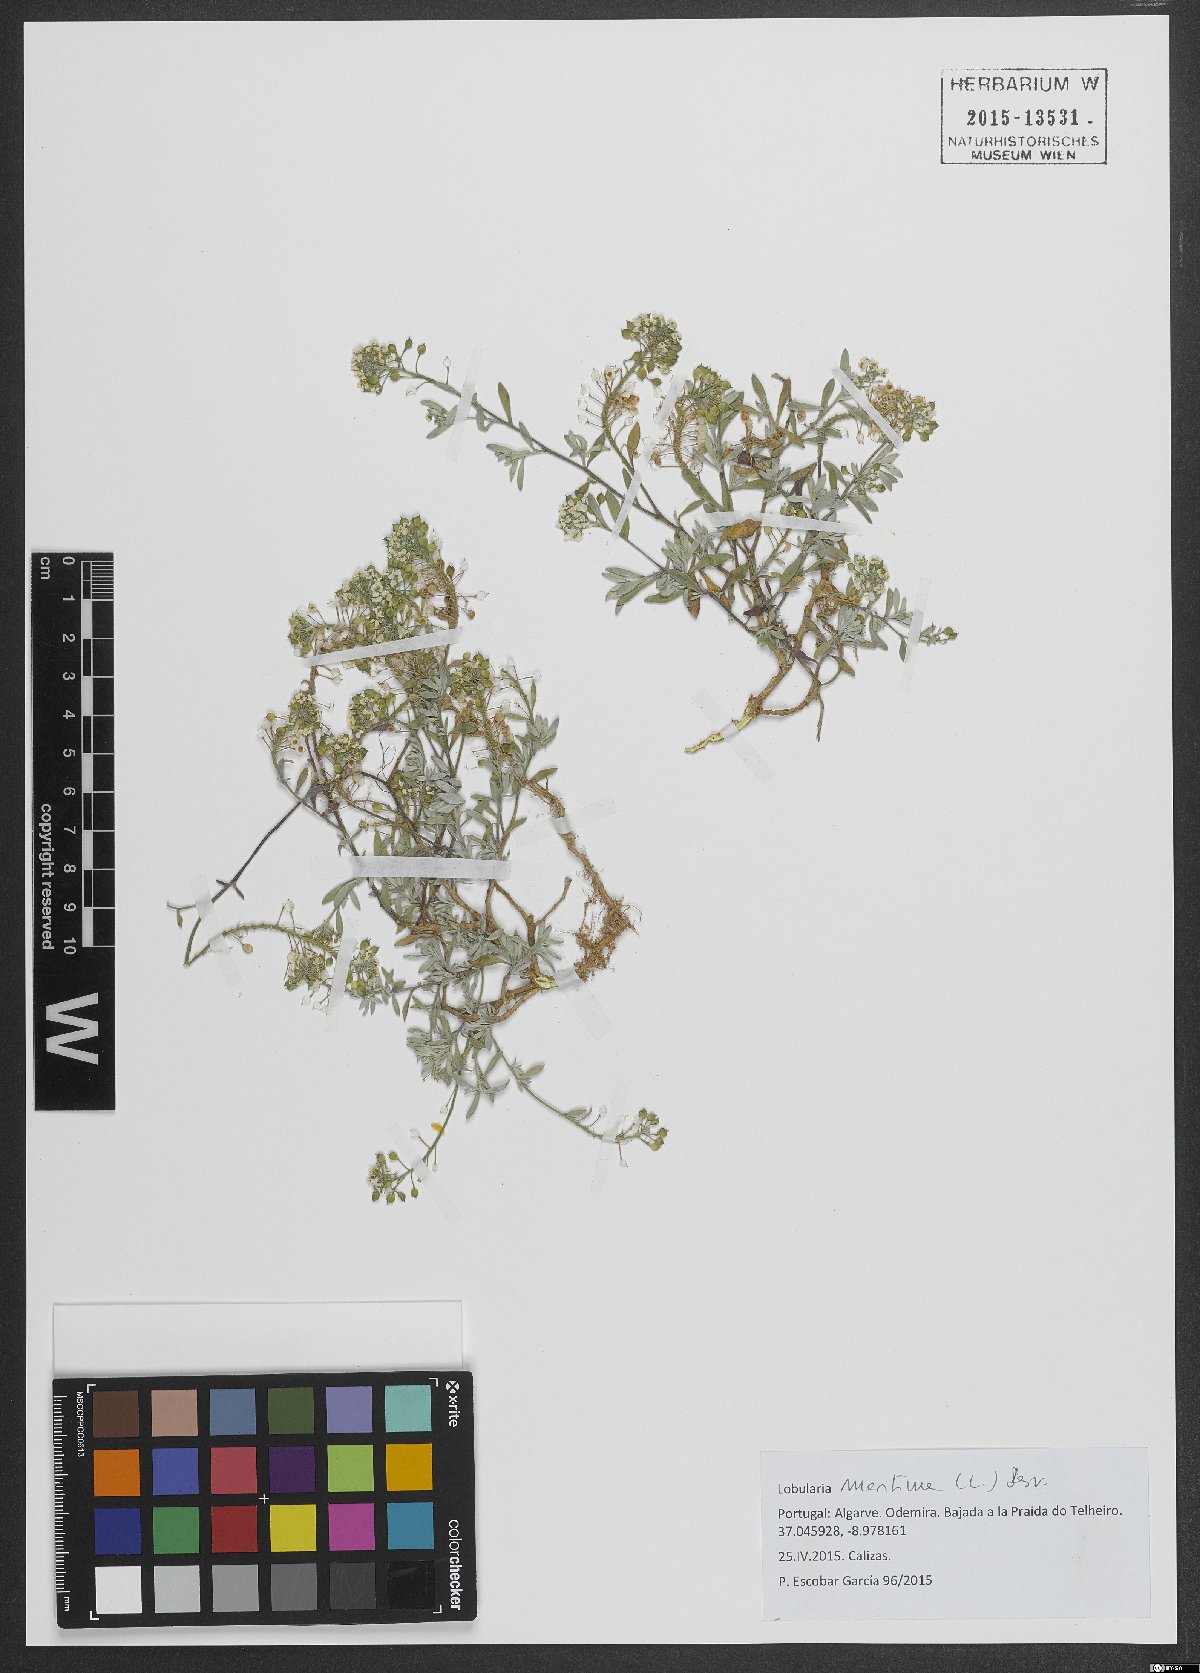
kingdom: Plantae
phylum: Tracheophyta
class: Magnoliopsida
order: Brassicales
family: Brassicaceae
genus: Lobularia
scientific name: Lobularia maritima
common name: Sweet alison
